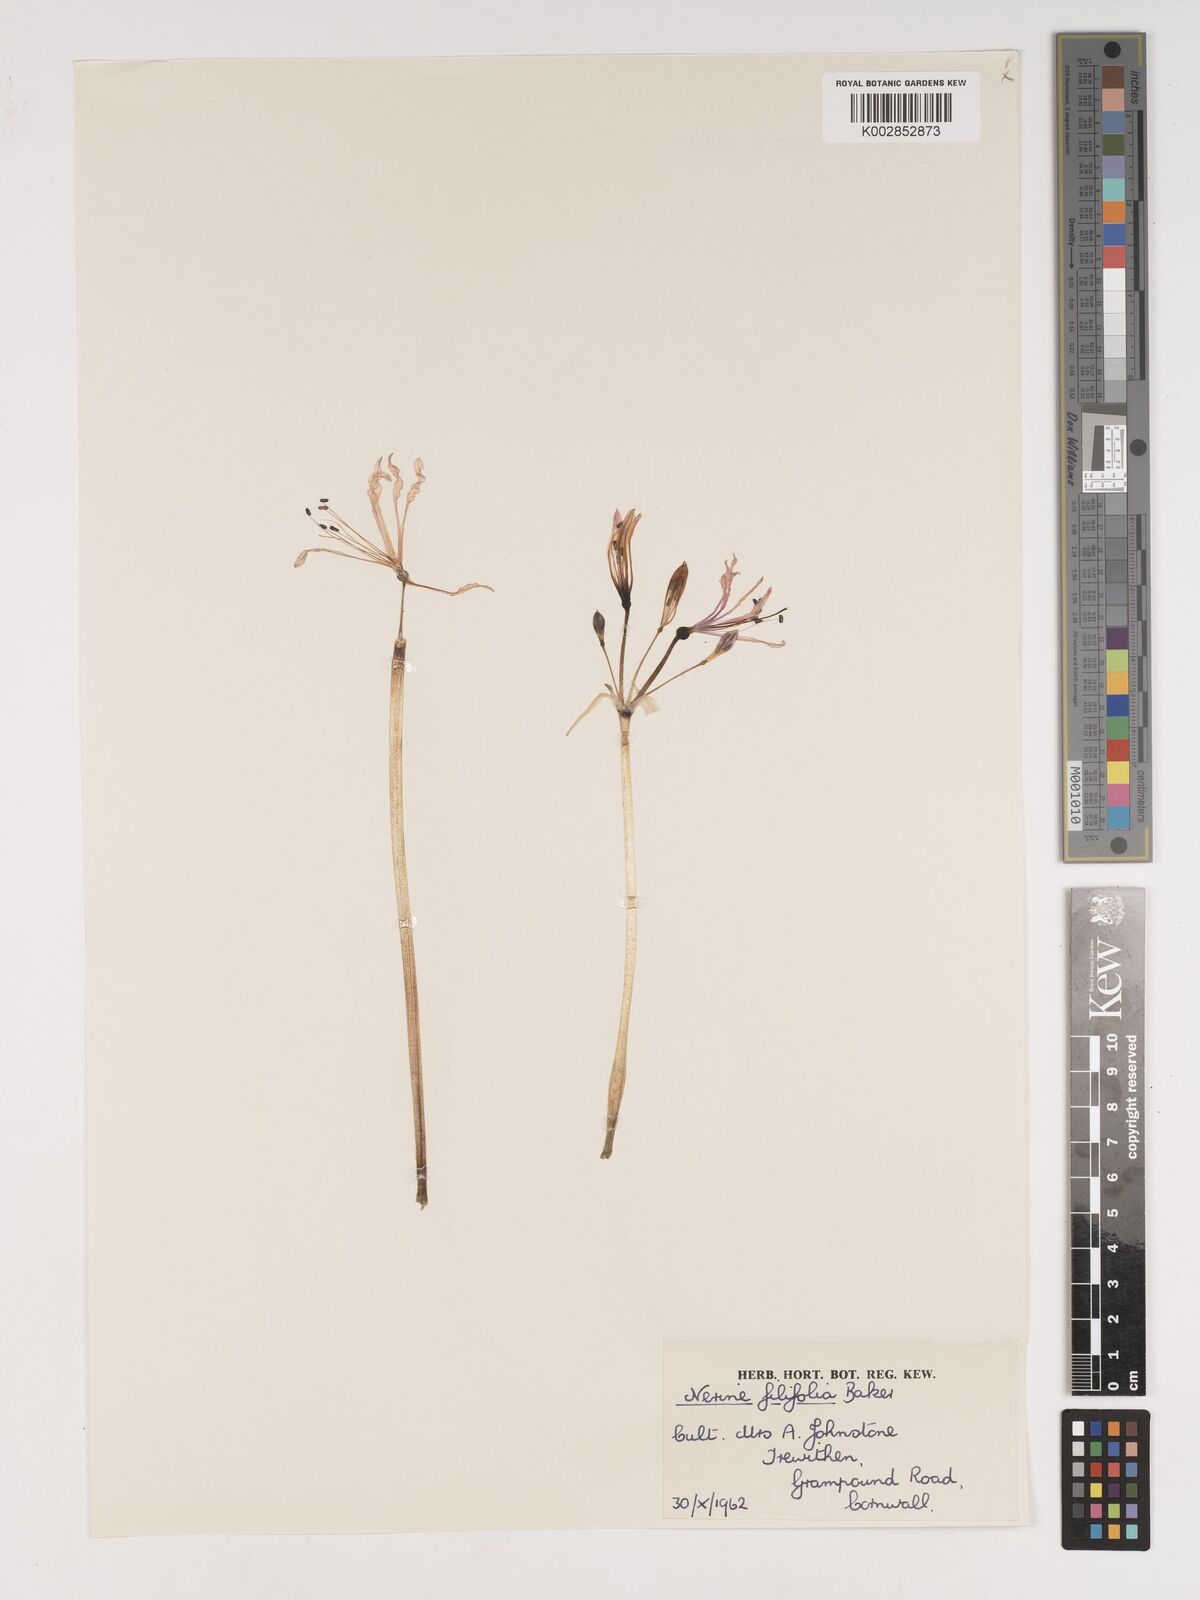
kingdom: Plantae
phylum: Tracheophyta
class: Liliopsida
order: Asparagales
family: Amaryllidaceae
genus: Nerine
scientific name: Nerine filifolia
